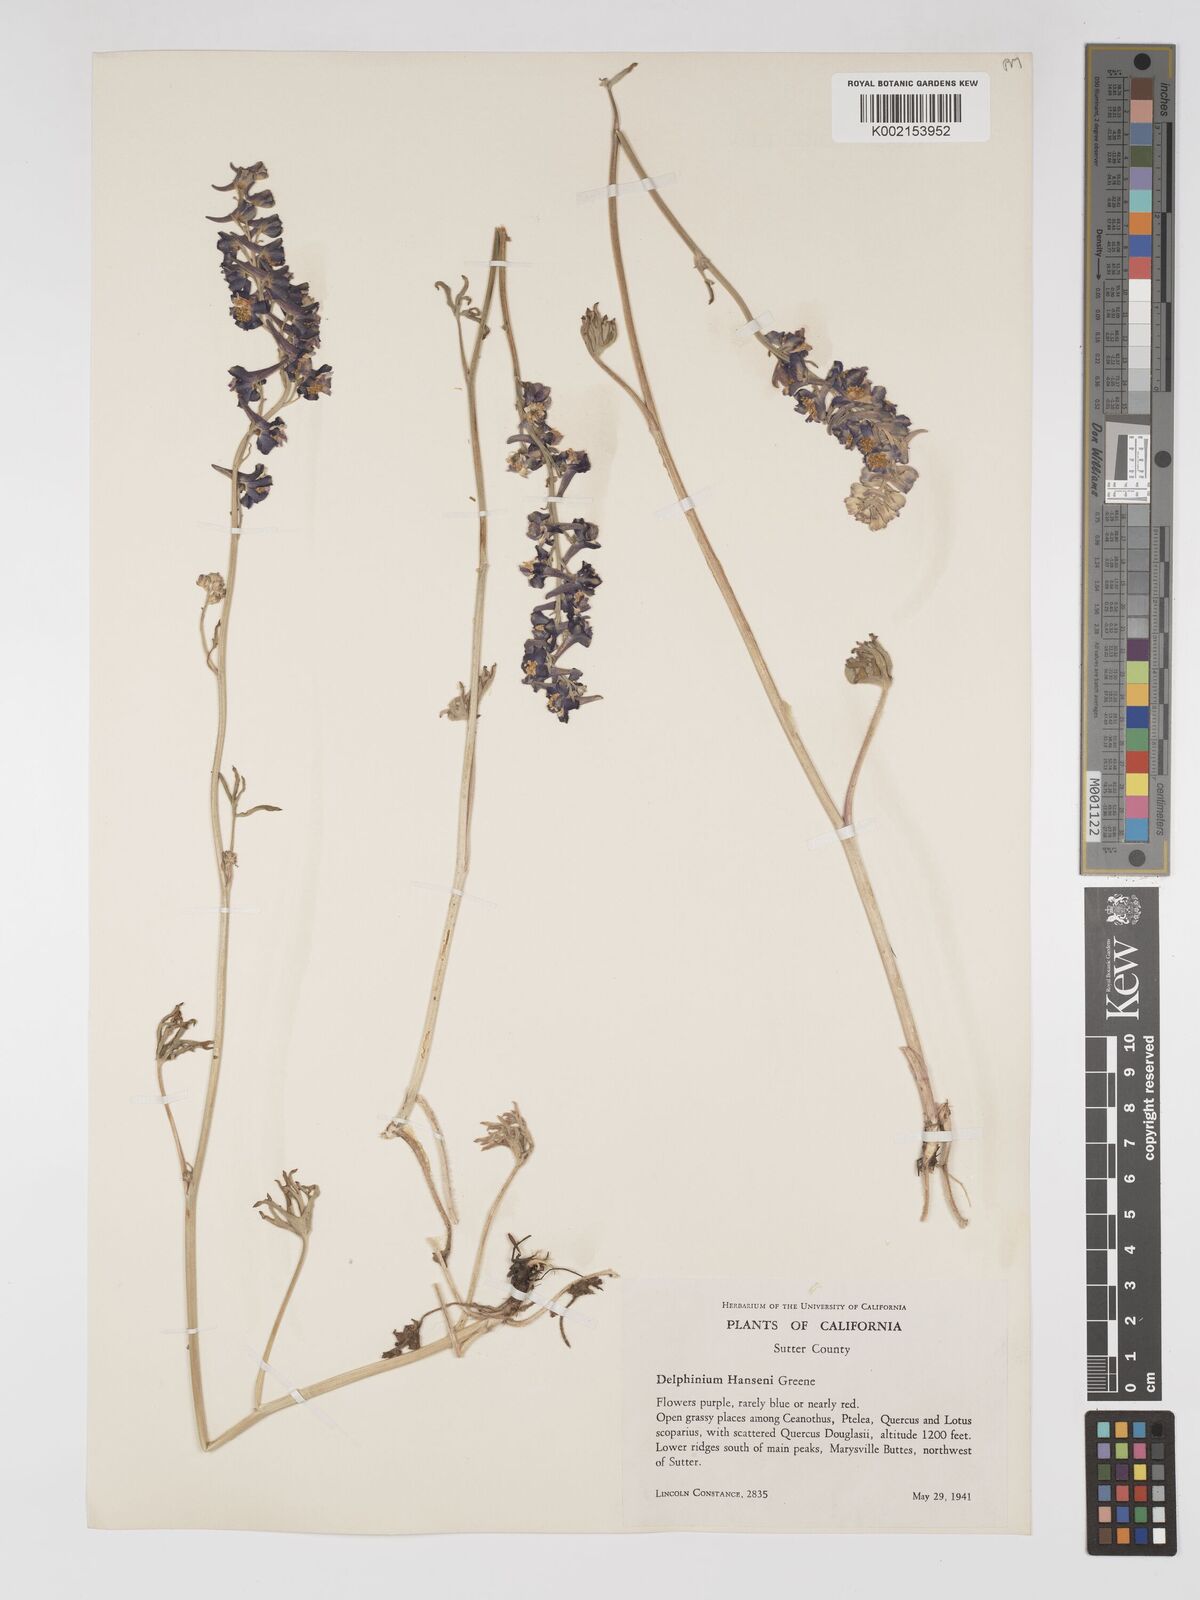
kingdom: Plantae
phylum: Tracheophyta
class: Magnoliopsida
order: Ranunculales
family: Ranunculaceae
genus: Delphinium
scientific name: Delphinium hansenii
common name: Hansen's larkspur
